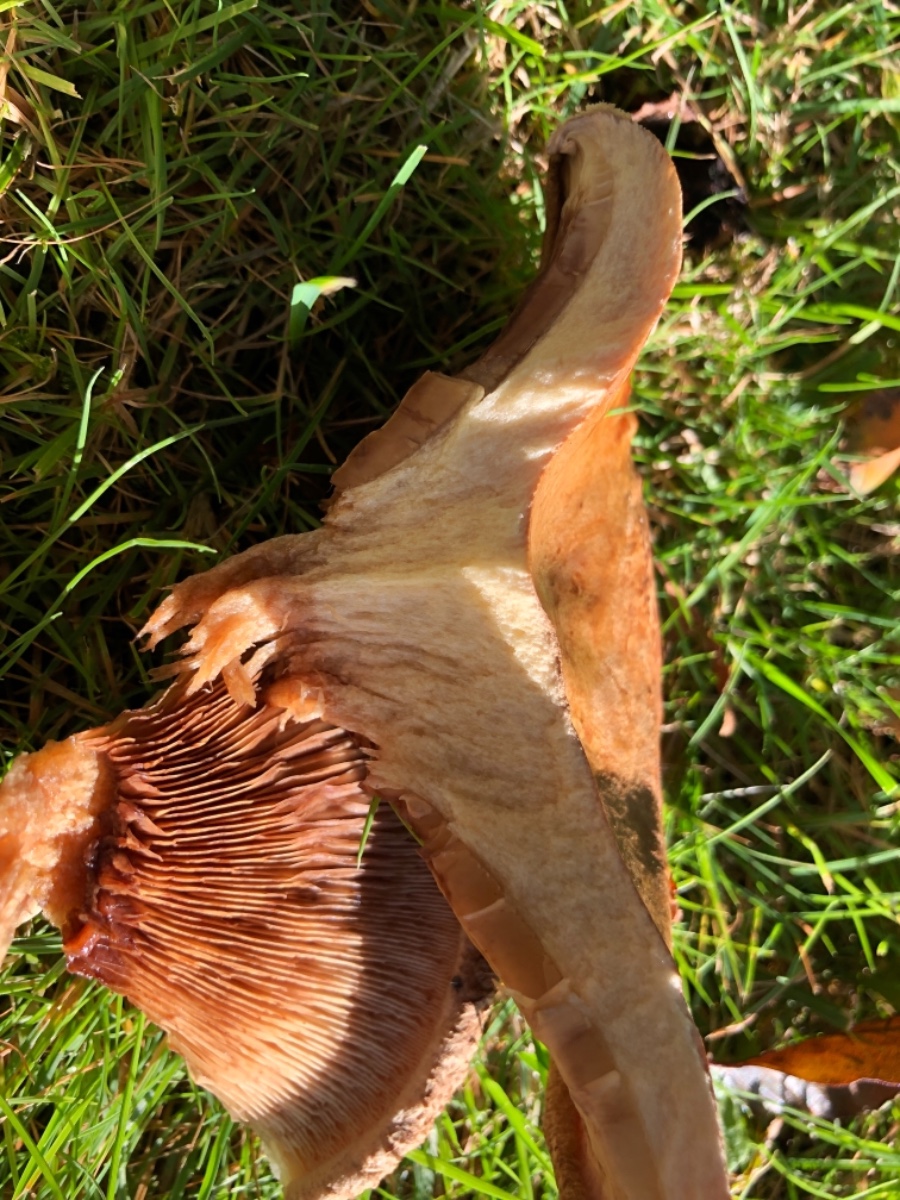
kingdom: Fungi
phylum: Basidiomycota
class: Agaricomycetes
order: Boletales
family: Paxillaceae
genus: Paxillus
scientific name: Paxillus
